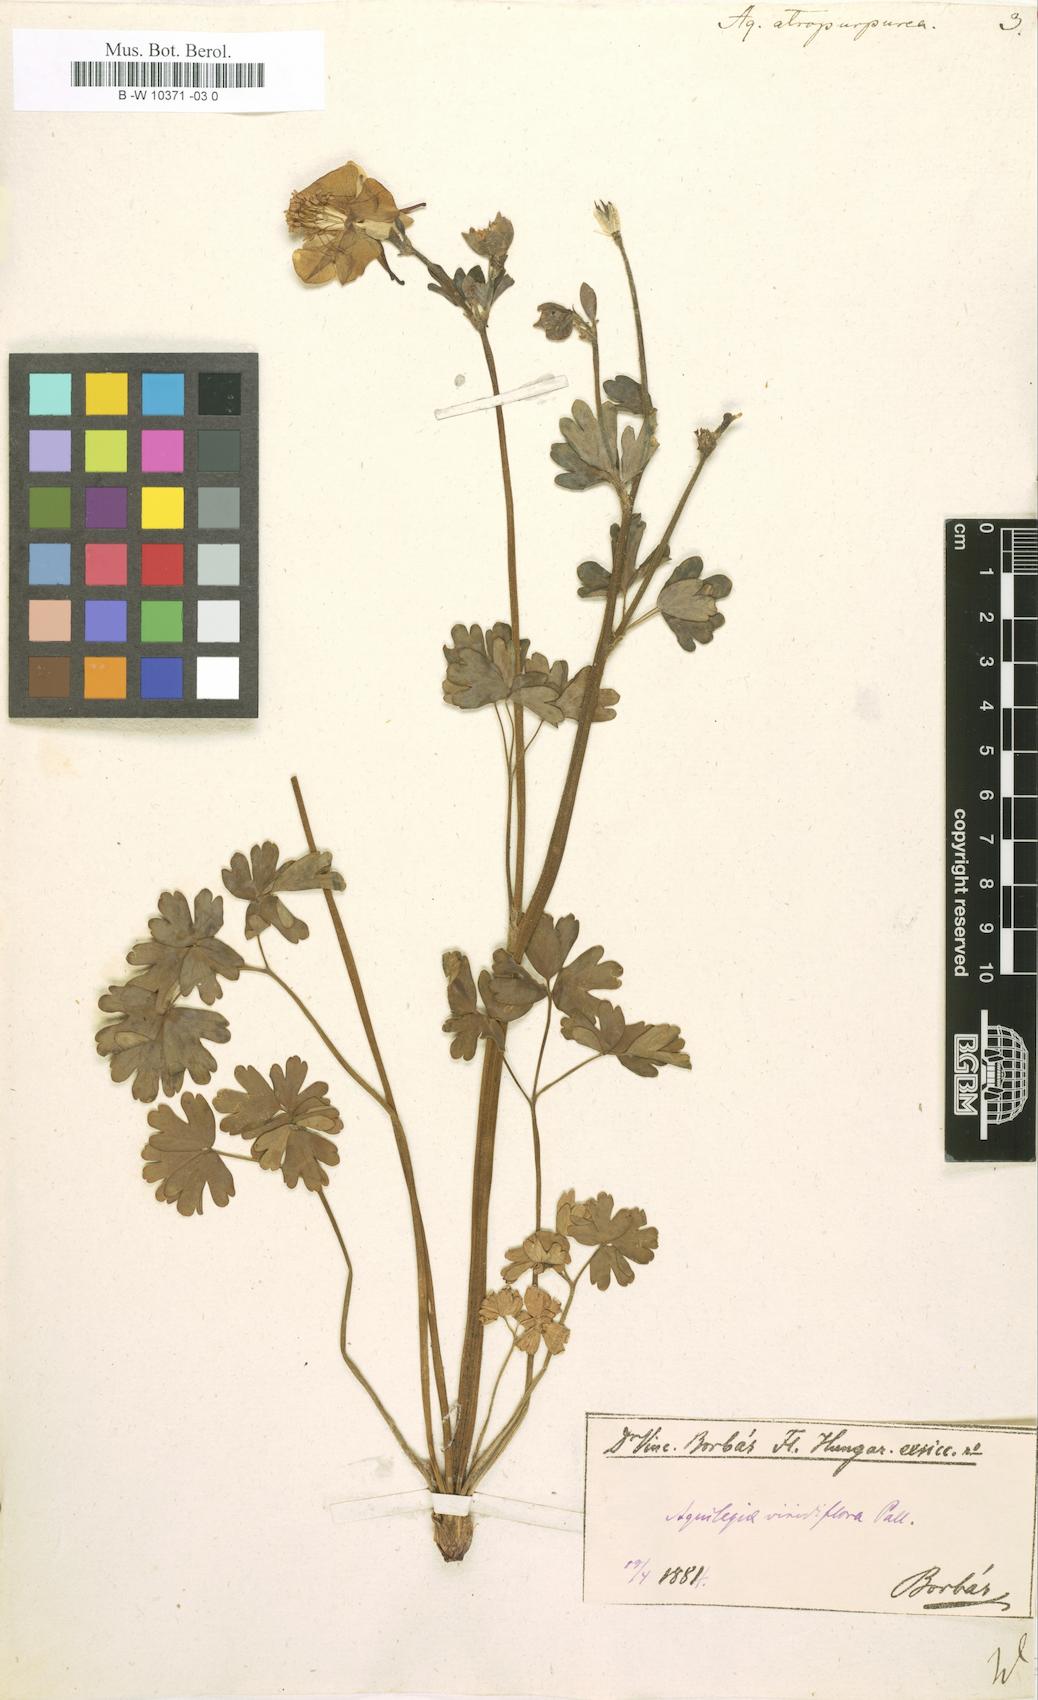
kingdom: Plantae
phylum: Tracheophyta
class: Magnoliopsida
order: Ranunculales
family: Ranunculaceae
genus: Aquilegia
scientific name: Aquilegia
